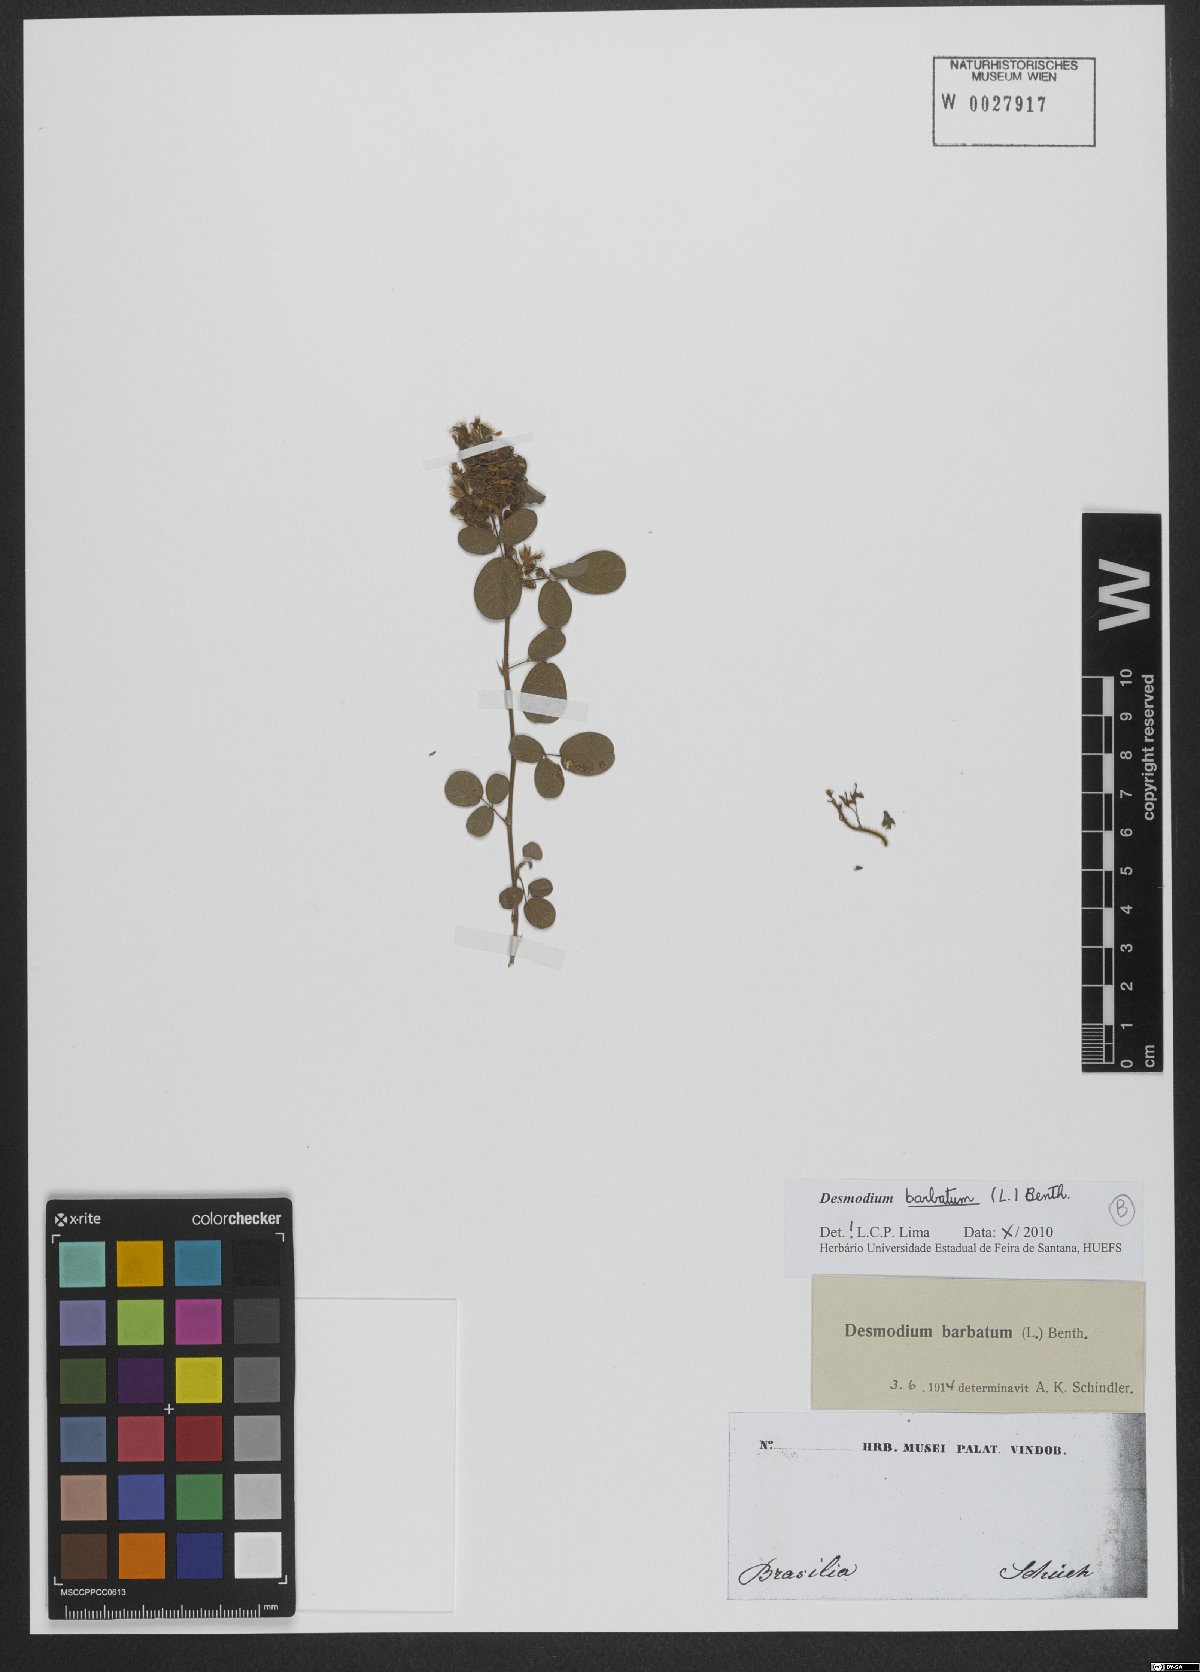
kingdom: Plantae
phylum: Tracheophyta
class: Magnoliopsida
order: Fabales
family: Fabaceae
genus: Grona
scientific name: Grona barbata
